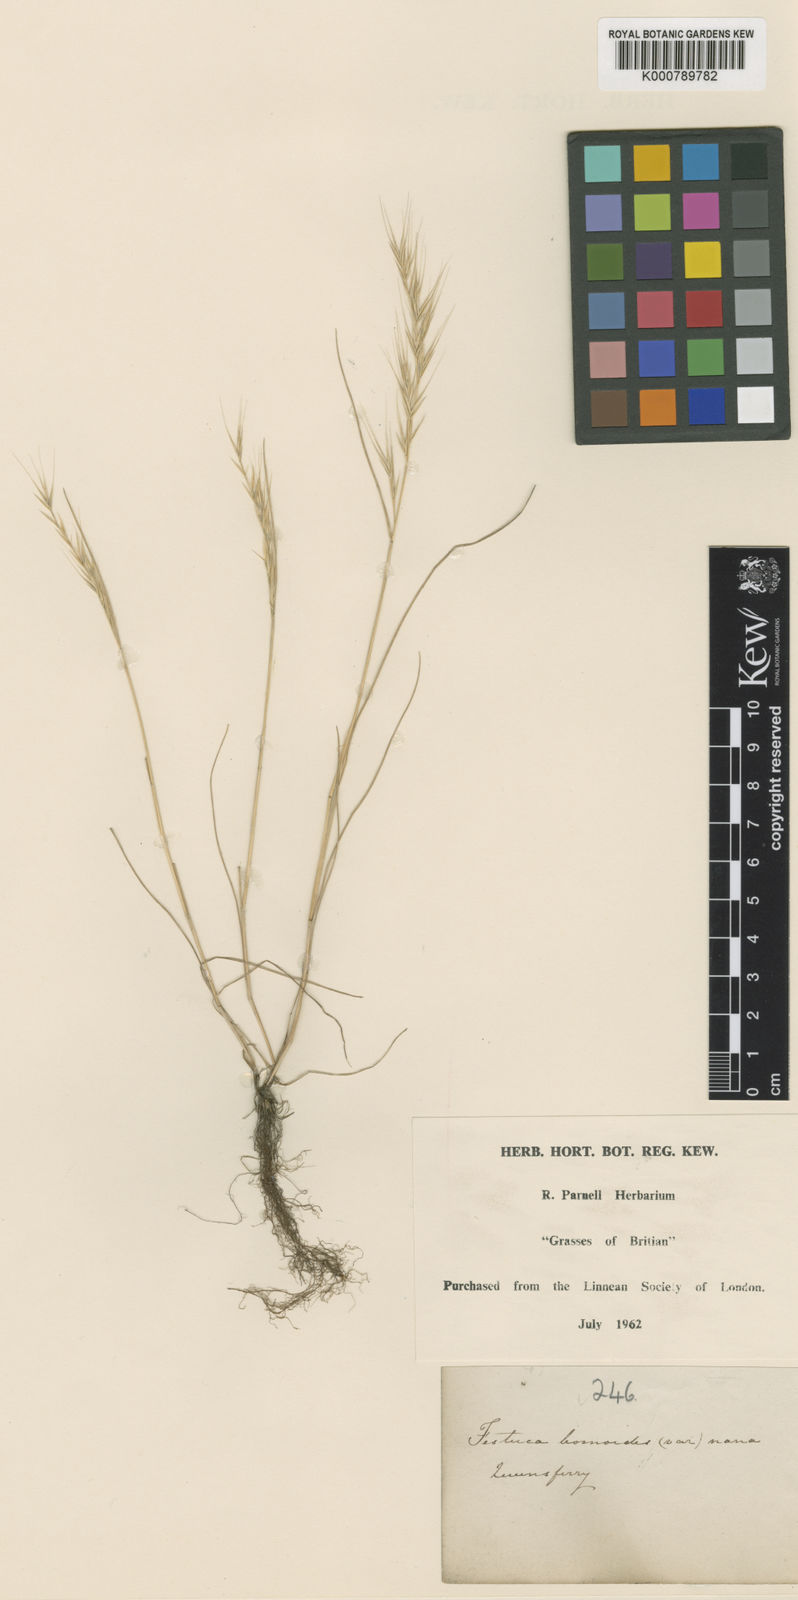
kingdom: Plantae
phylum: Tracheophyta
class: Liliopsida
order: Poales
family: Poaceae
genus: Festuca
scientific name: Festuca bromoides
